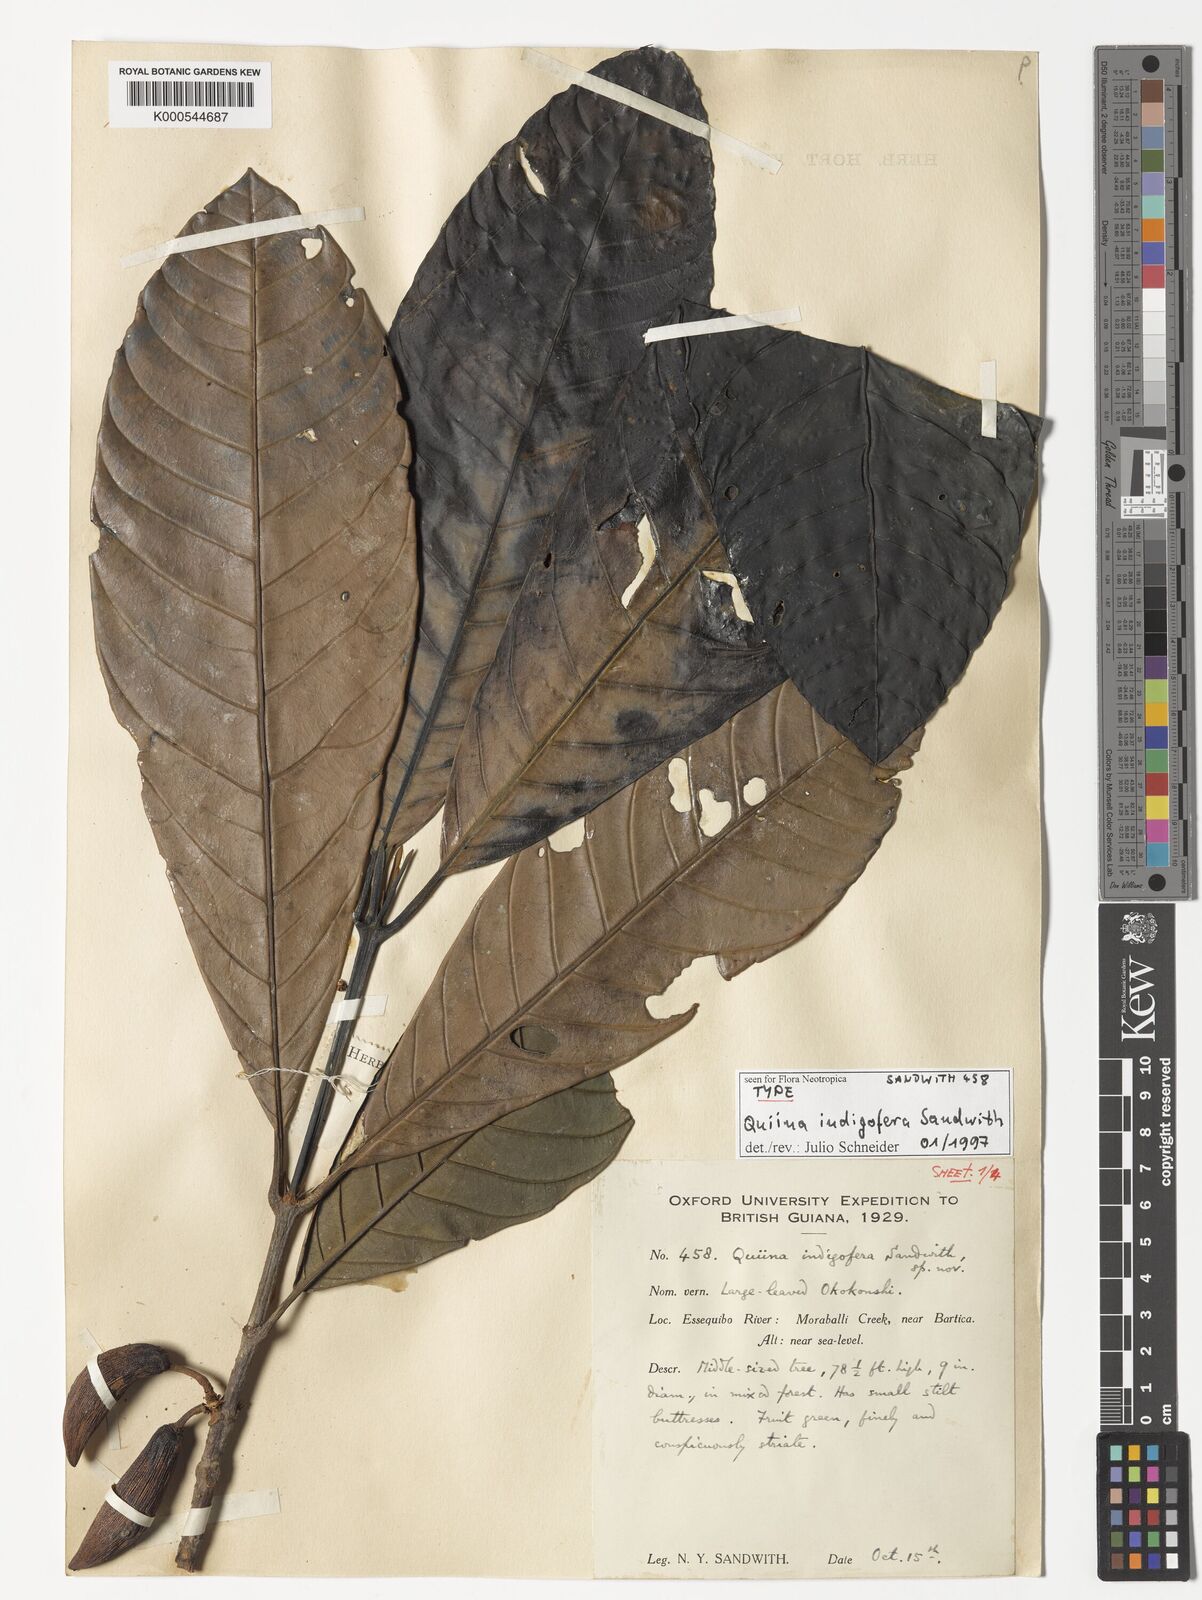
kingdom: Plantae
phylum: Tracheophyta
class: Magnoliopsida
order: Malpighiales
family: Quiinaceae
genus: Quiina
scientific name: Quiina indigofera
